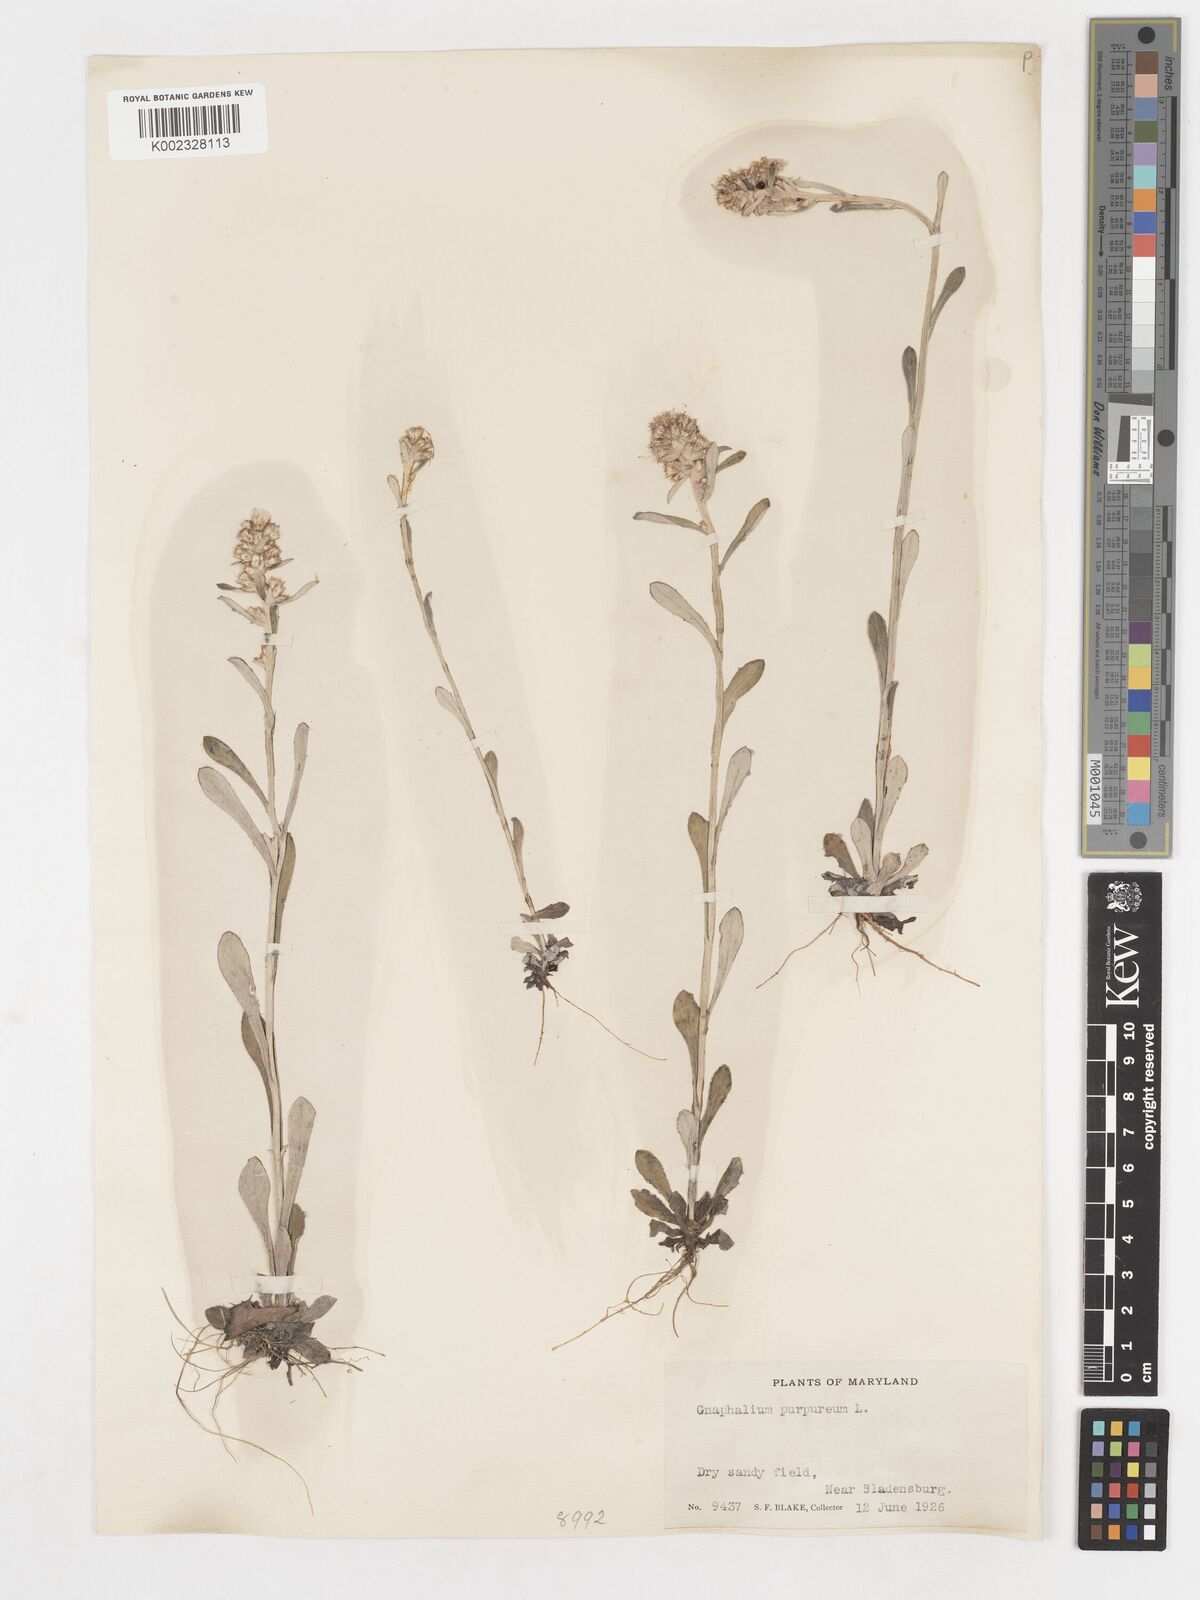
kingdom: Plantae
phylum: Tracheophyta
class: Magnoliopsida
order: Asterales
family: Asteraceae
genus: Gamochaeta
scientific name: Gamochaeta purpurea
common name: Purple cudweed
